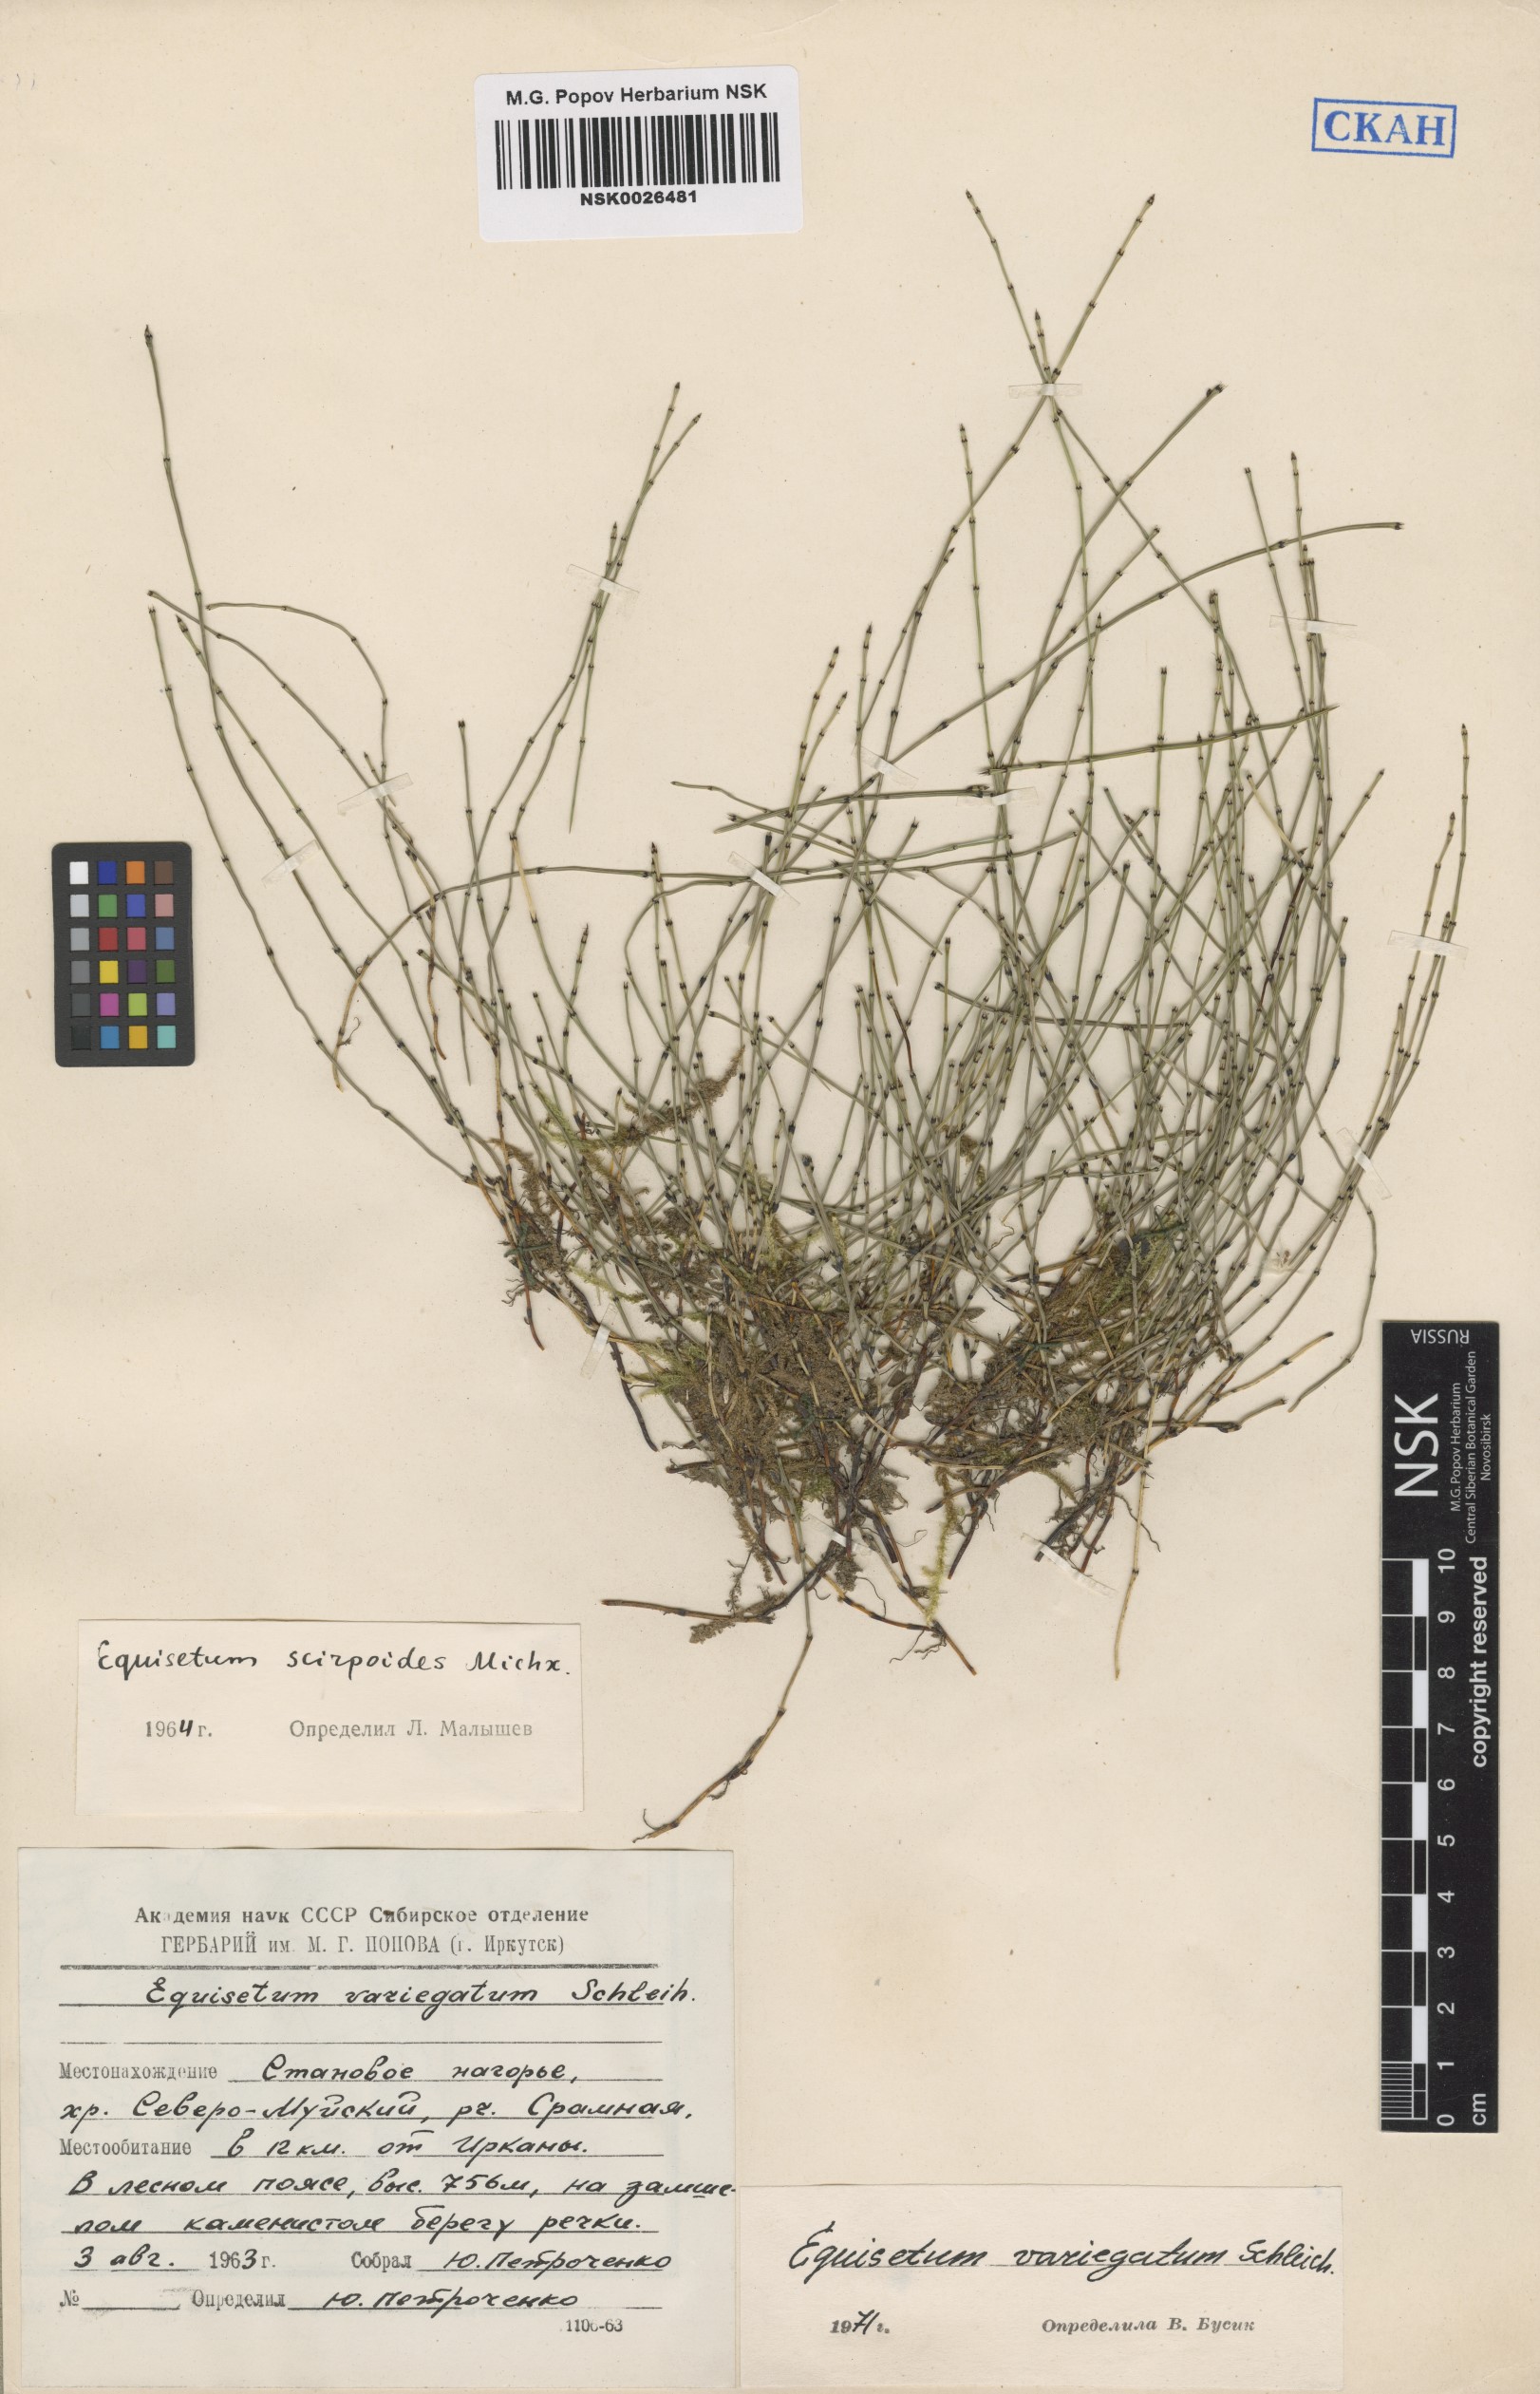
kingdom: Plantae
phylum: Tracheophyta
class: Polypodiopsida
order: Equisetales
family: Equisetaceae
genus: Equisetum
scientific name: Equisetum variegatum
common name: Variegated horsetail
